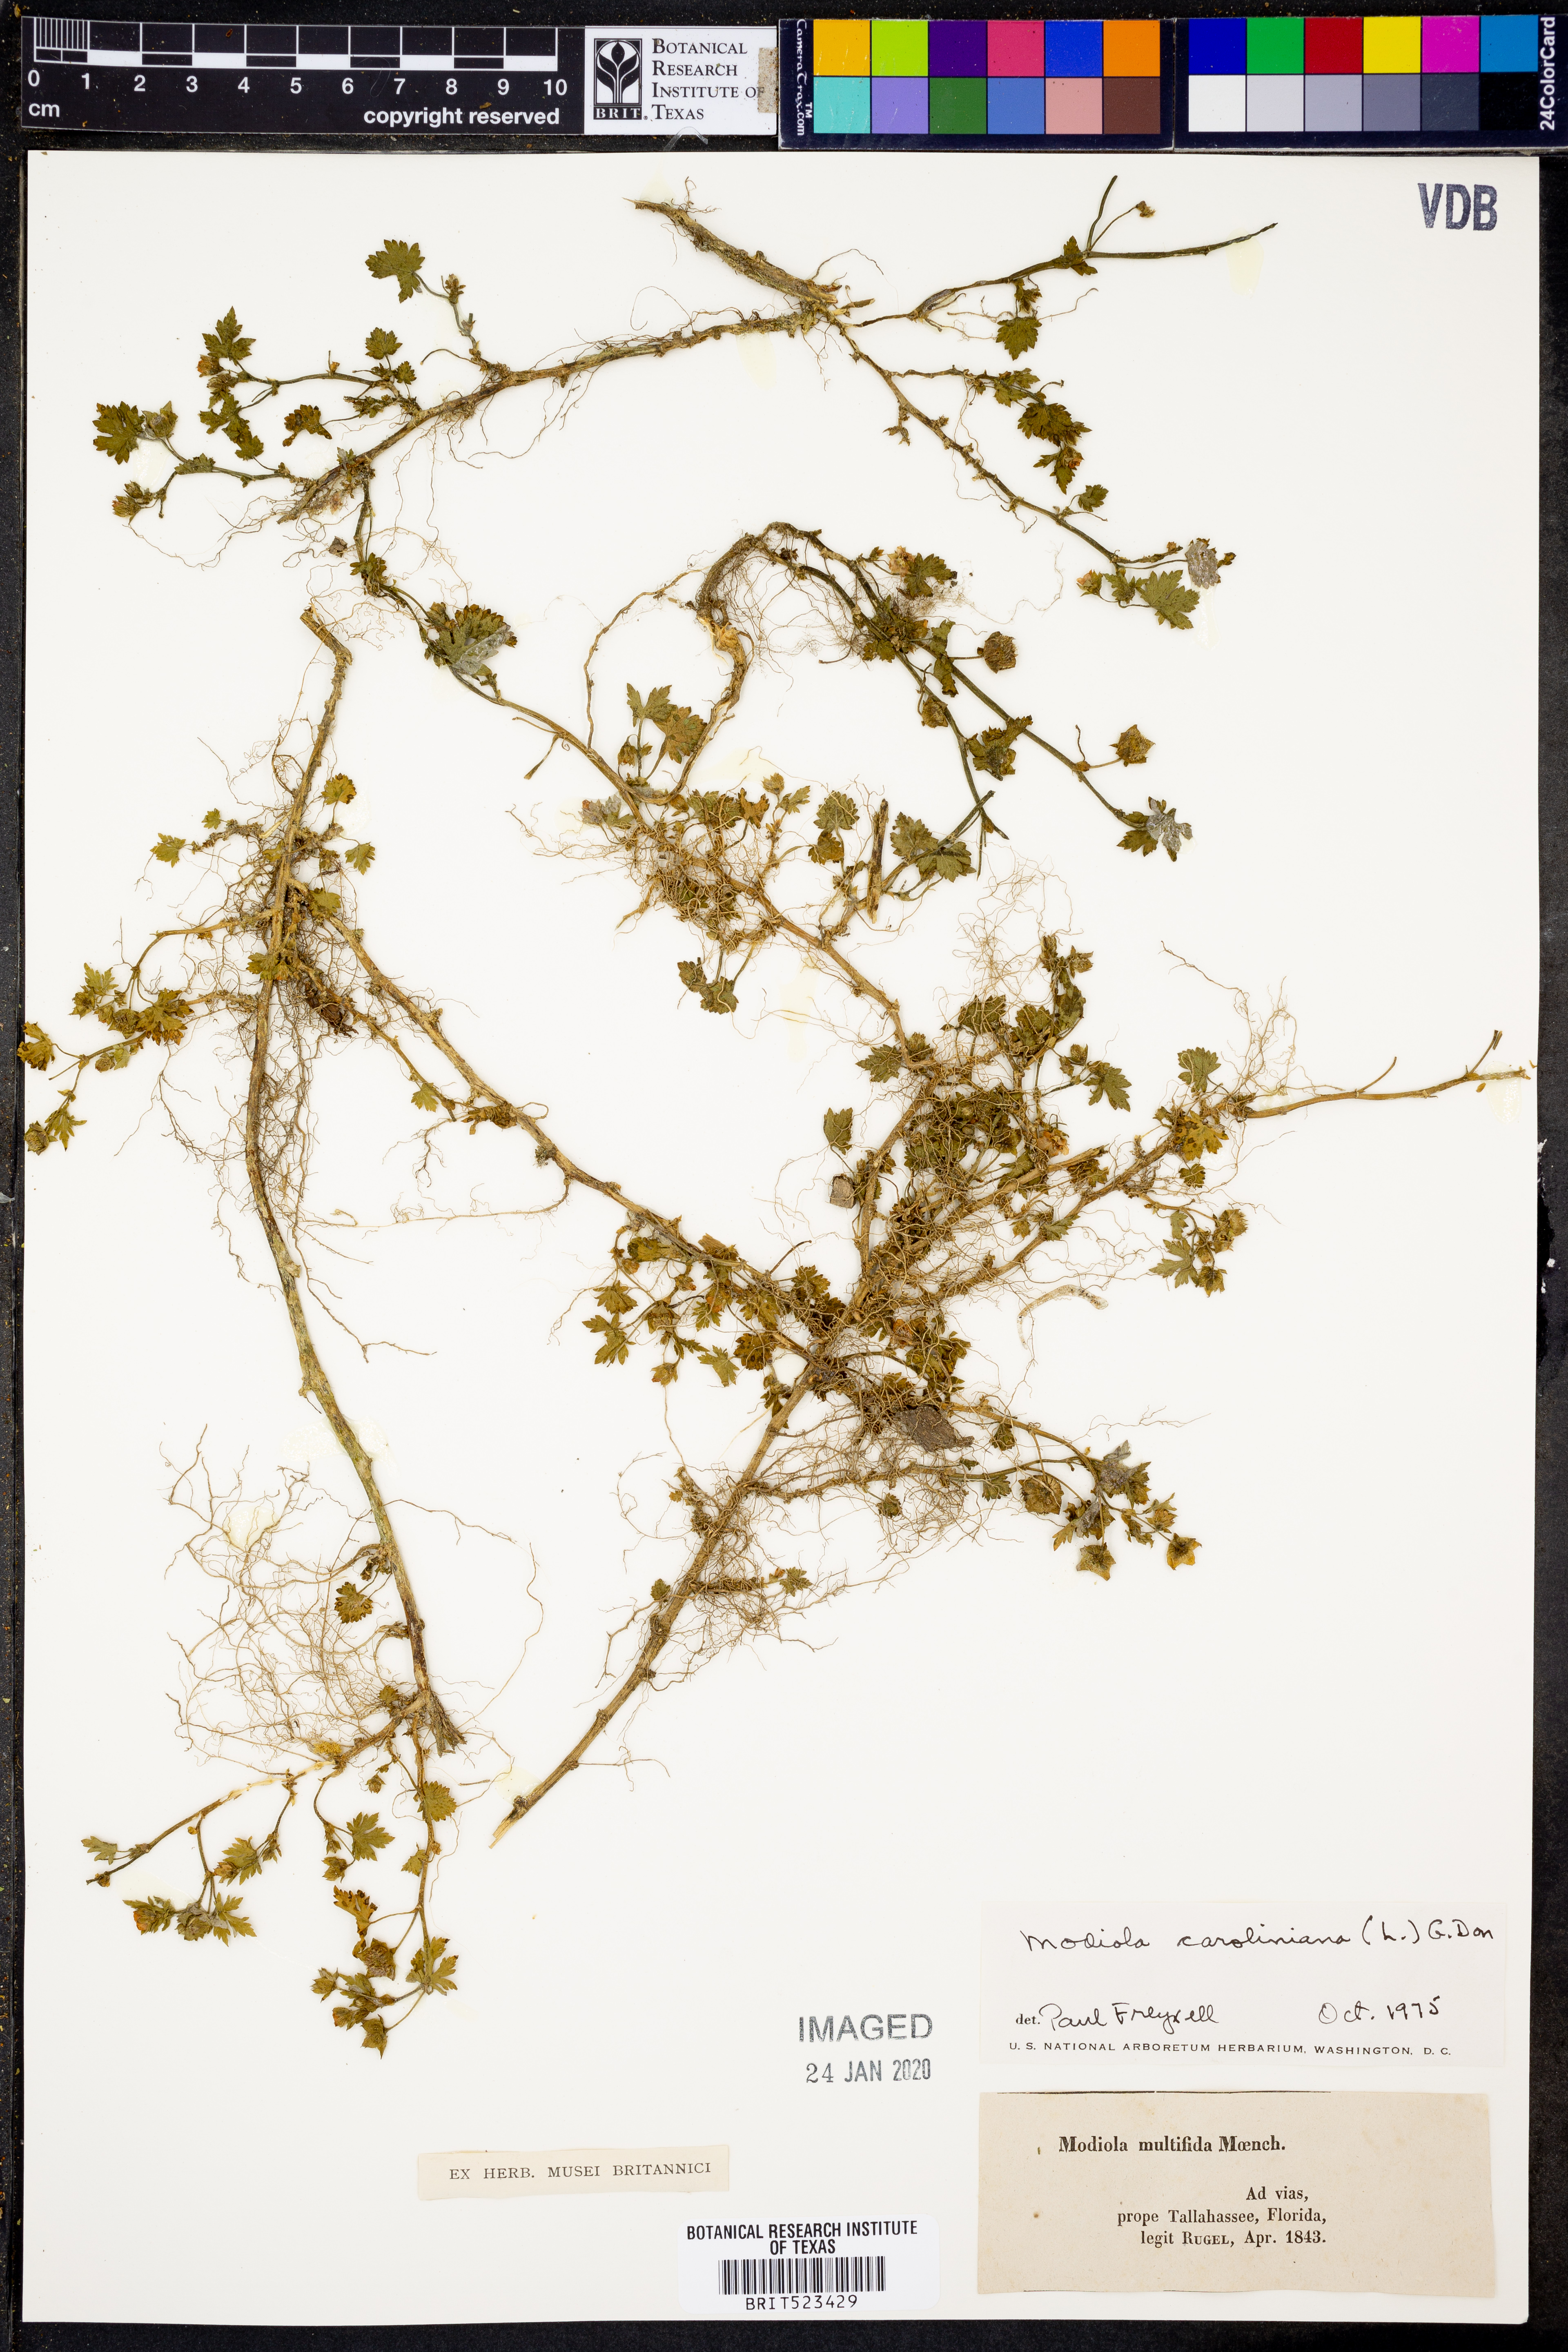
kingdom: Plantae
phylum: Tracheophyta
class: Magnoliopsida
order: Malvales
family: Malvaceae
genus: Modiola
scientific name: Modiola caroliniana
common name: Carolina bristlemallow
